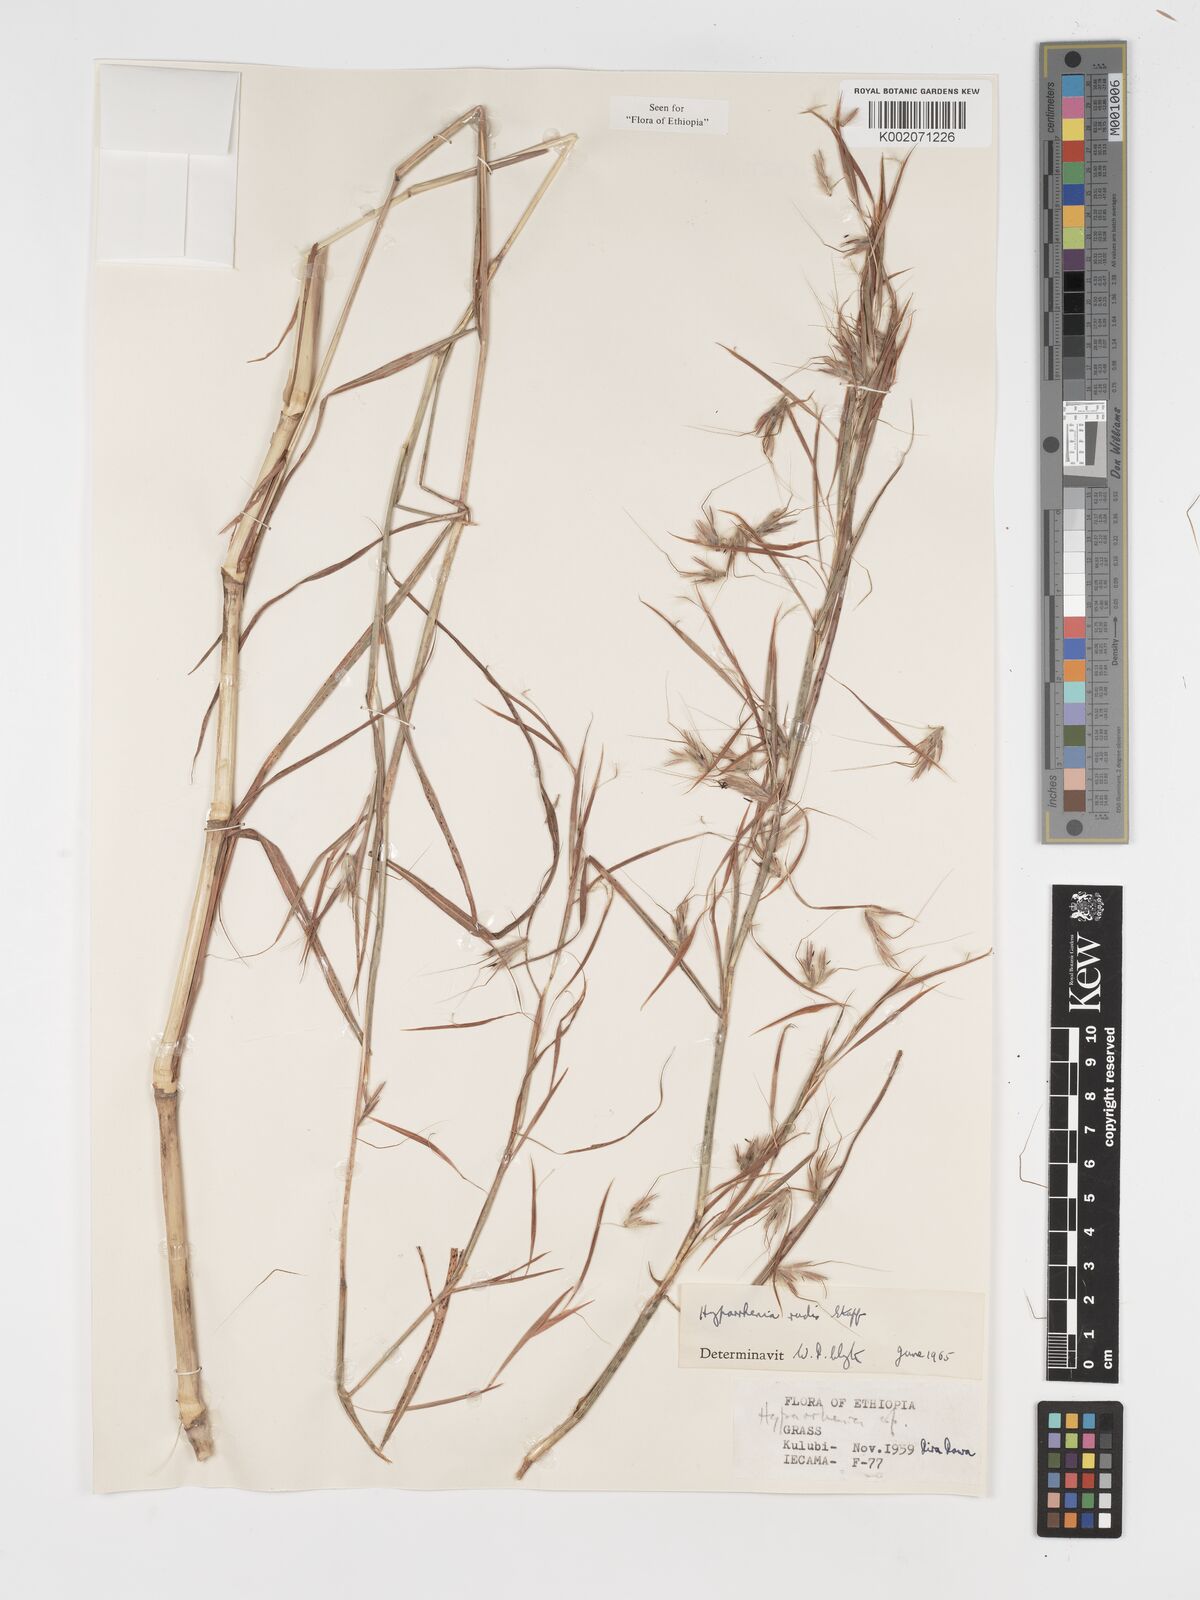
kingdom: Plantae
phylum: Tracheophyta
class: Liliopsida
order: Poales
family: Poaceae
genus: Hyparrhenia
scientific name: Hyparrhenia rudis
